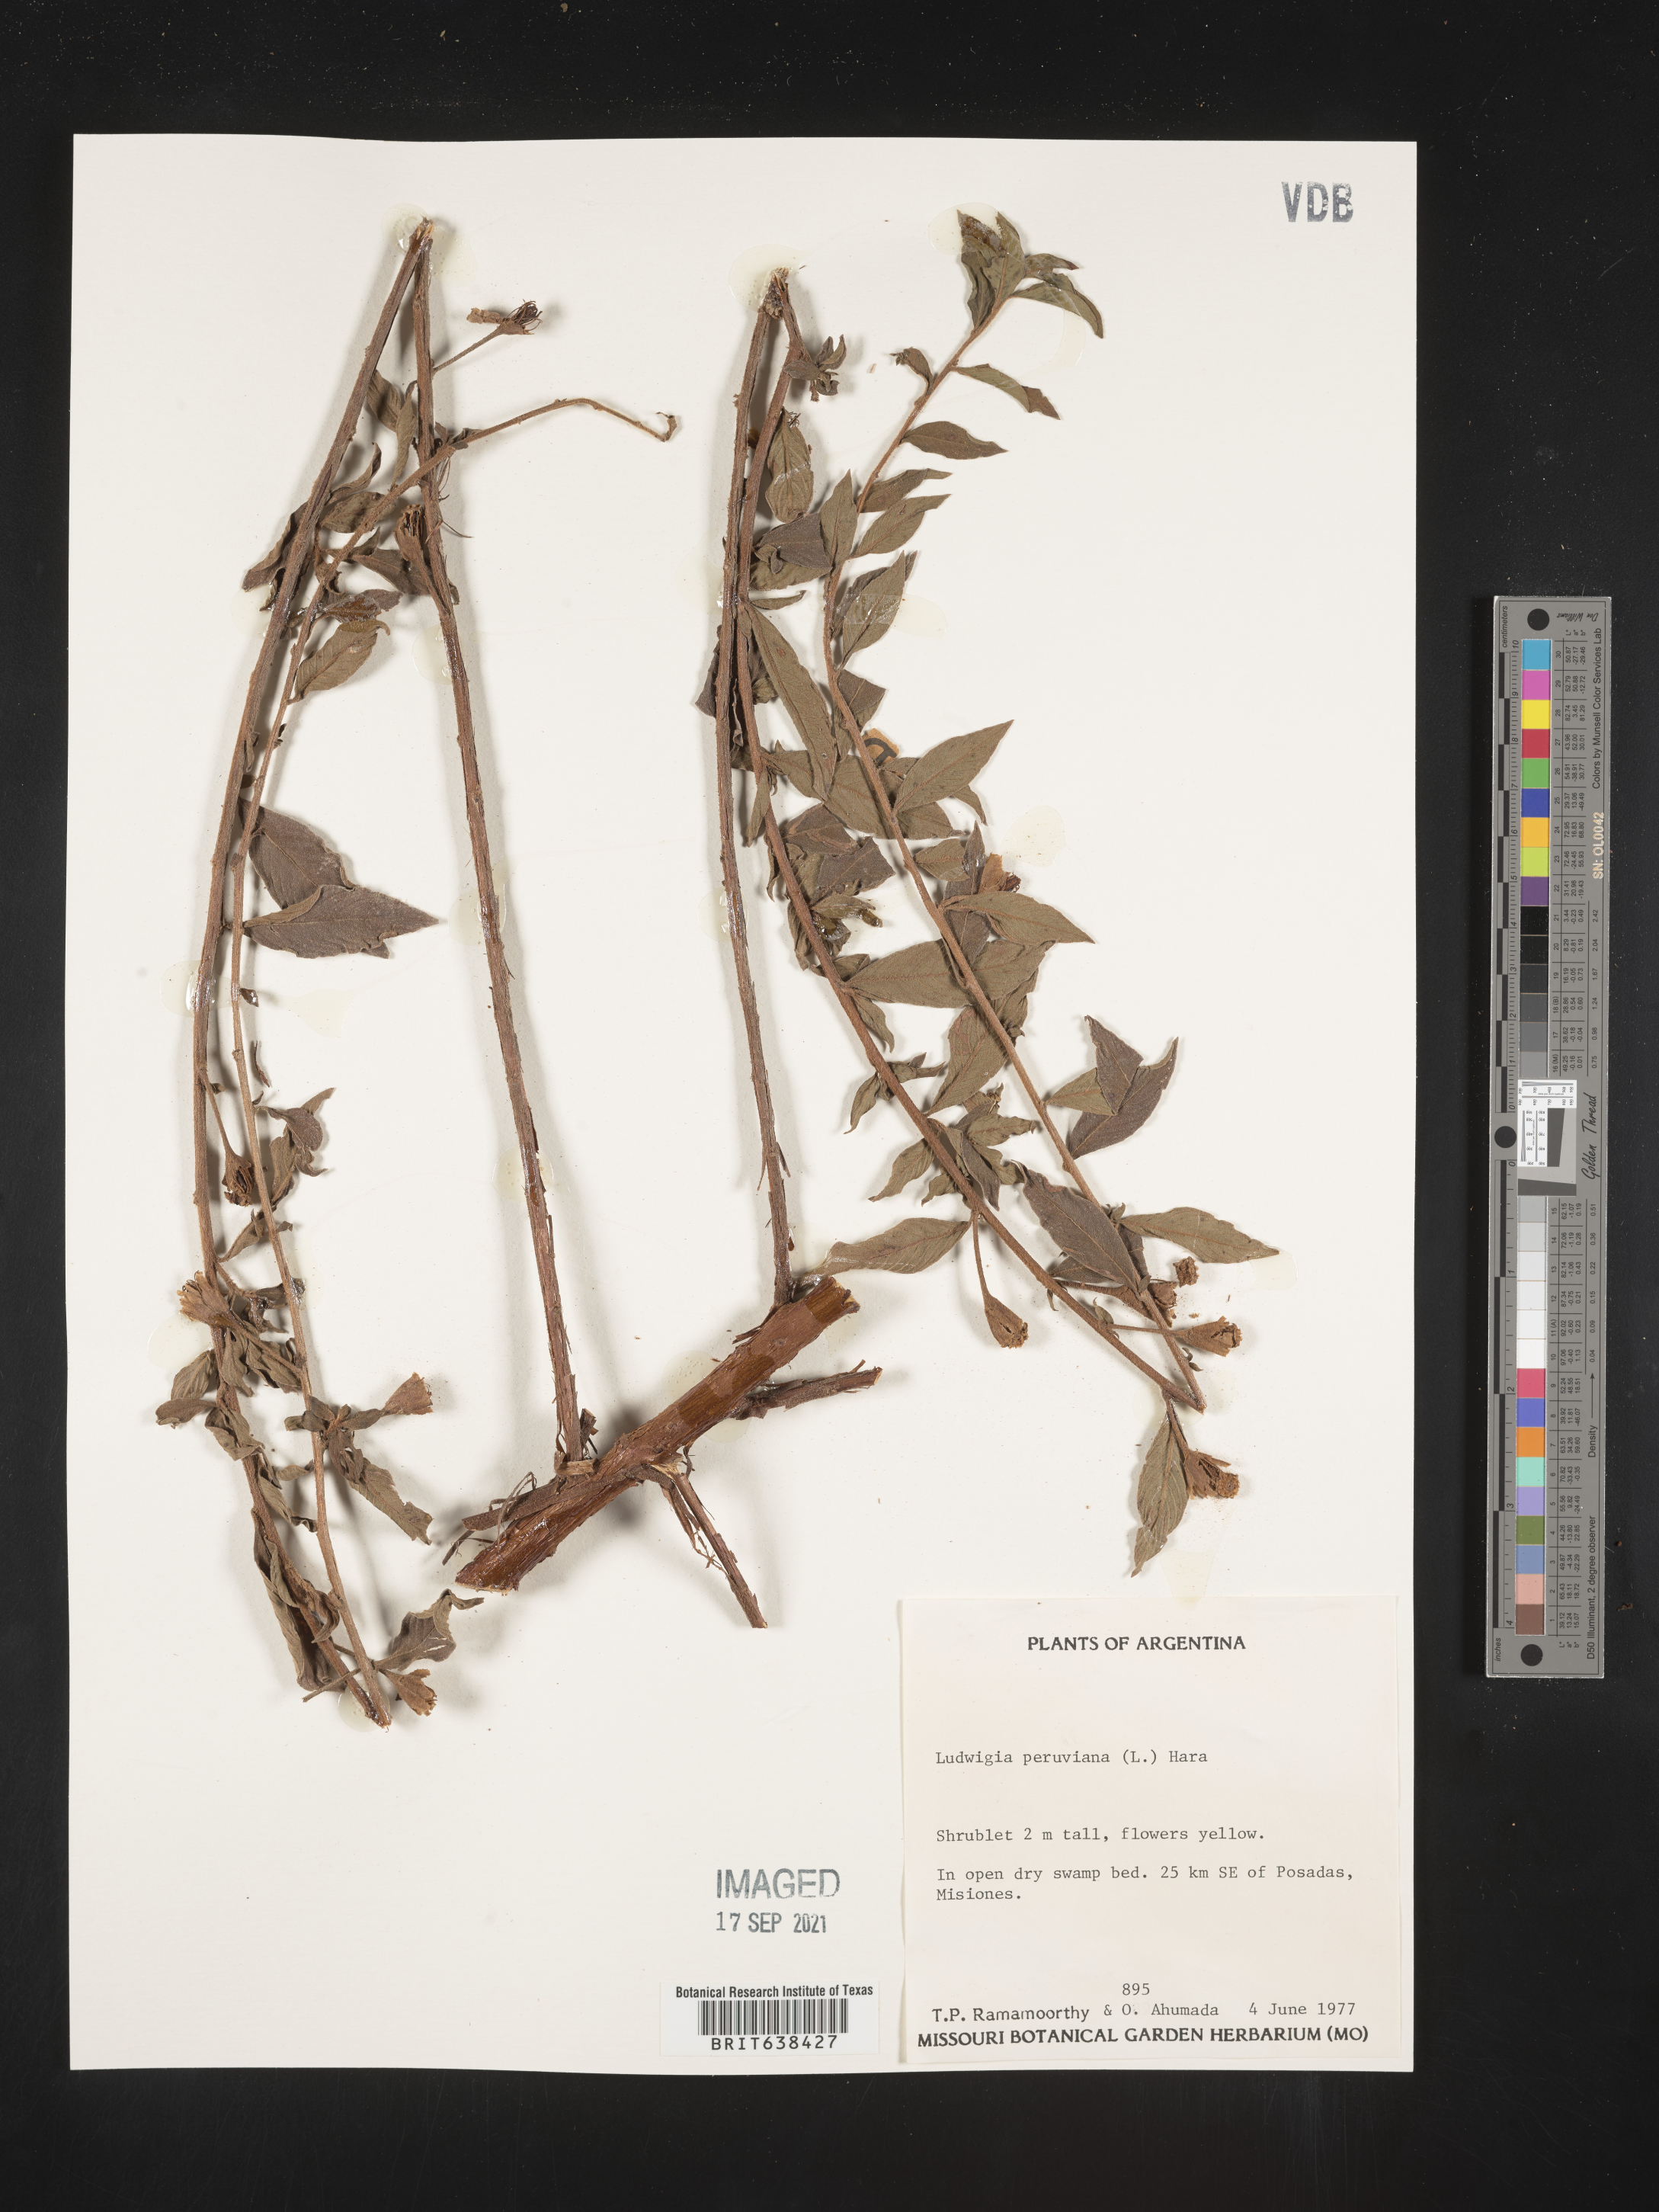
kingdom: Plantae
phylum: Tracheophyta
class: Magnoliopsida
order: Myrtales
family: Onagraceae
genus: Ludwigia
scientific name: Ludwigia
